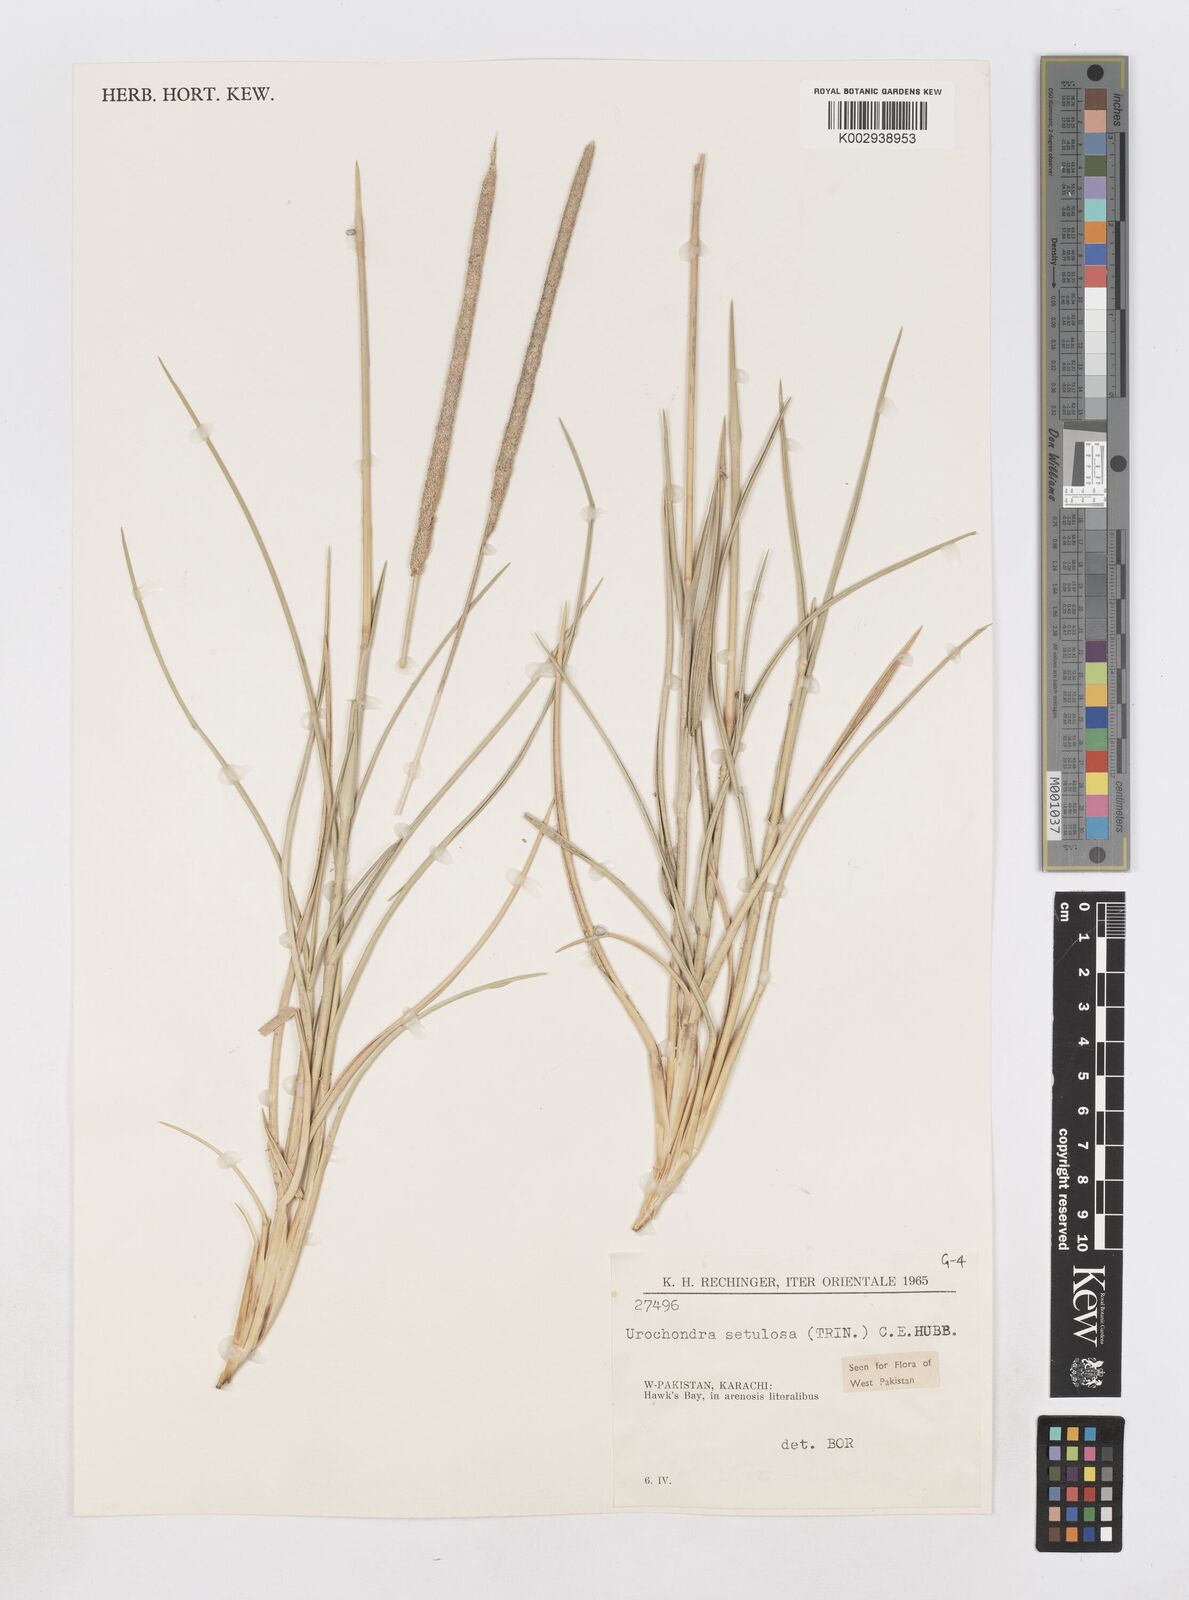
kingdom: Plantae
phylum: Tracheophyta
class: Liliopsida
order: Poales
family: Poaceae
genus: Urochondra
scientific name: Urochondra setulosa
